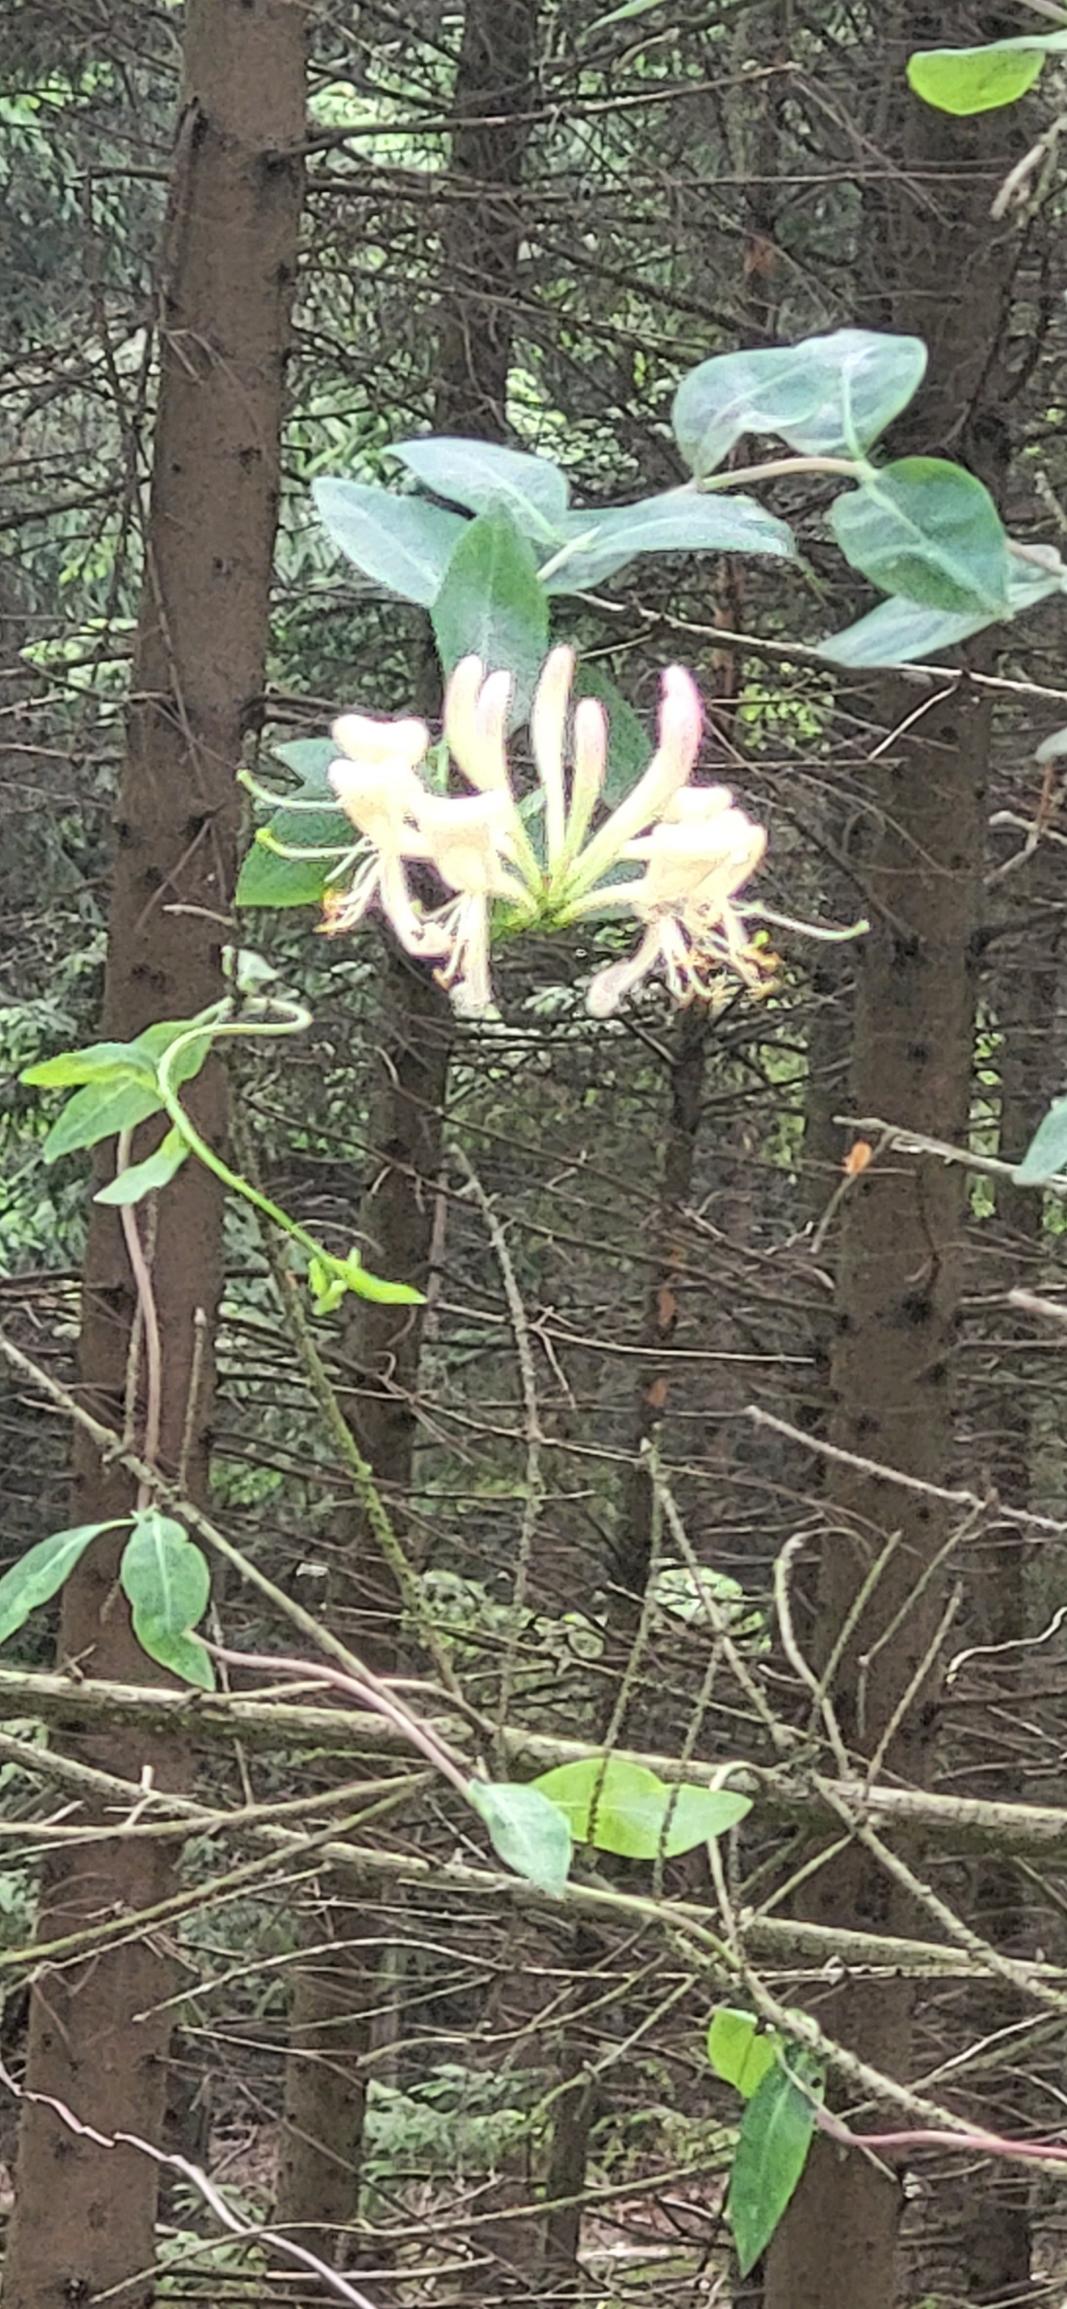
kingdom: Plantae
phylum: Tracheophyta
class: Magnoliopsida
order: Dipsacales
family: Caprifoliaceae
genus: Lonicera
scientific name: Lonicera periclymenum
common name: Almindelig gedeblad
